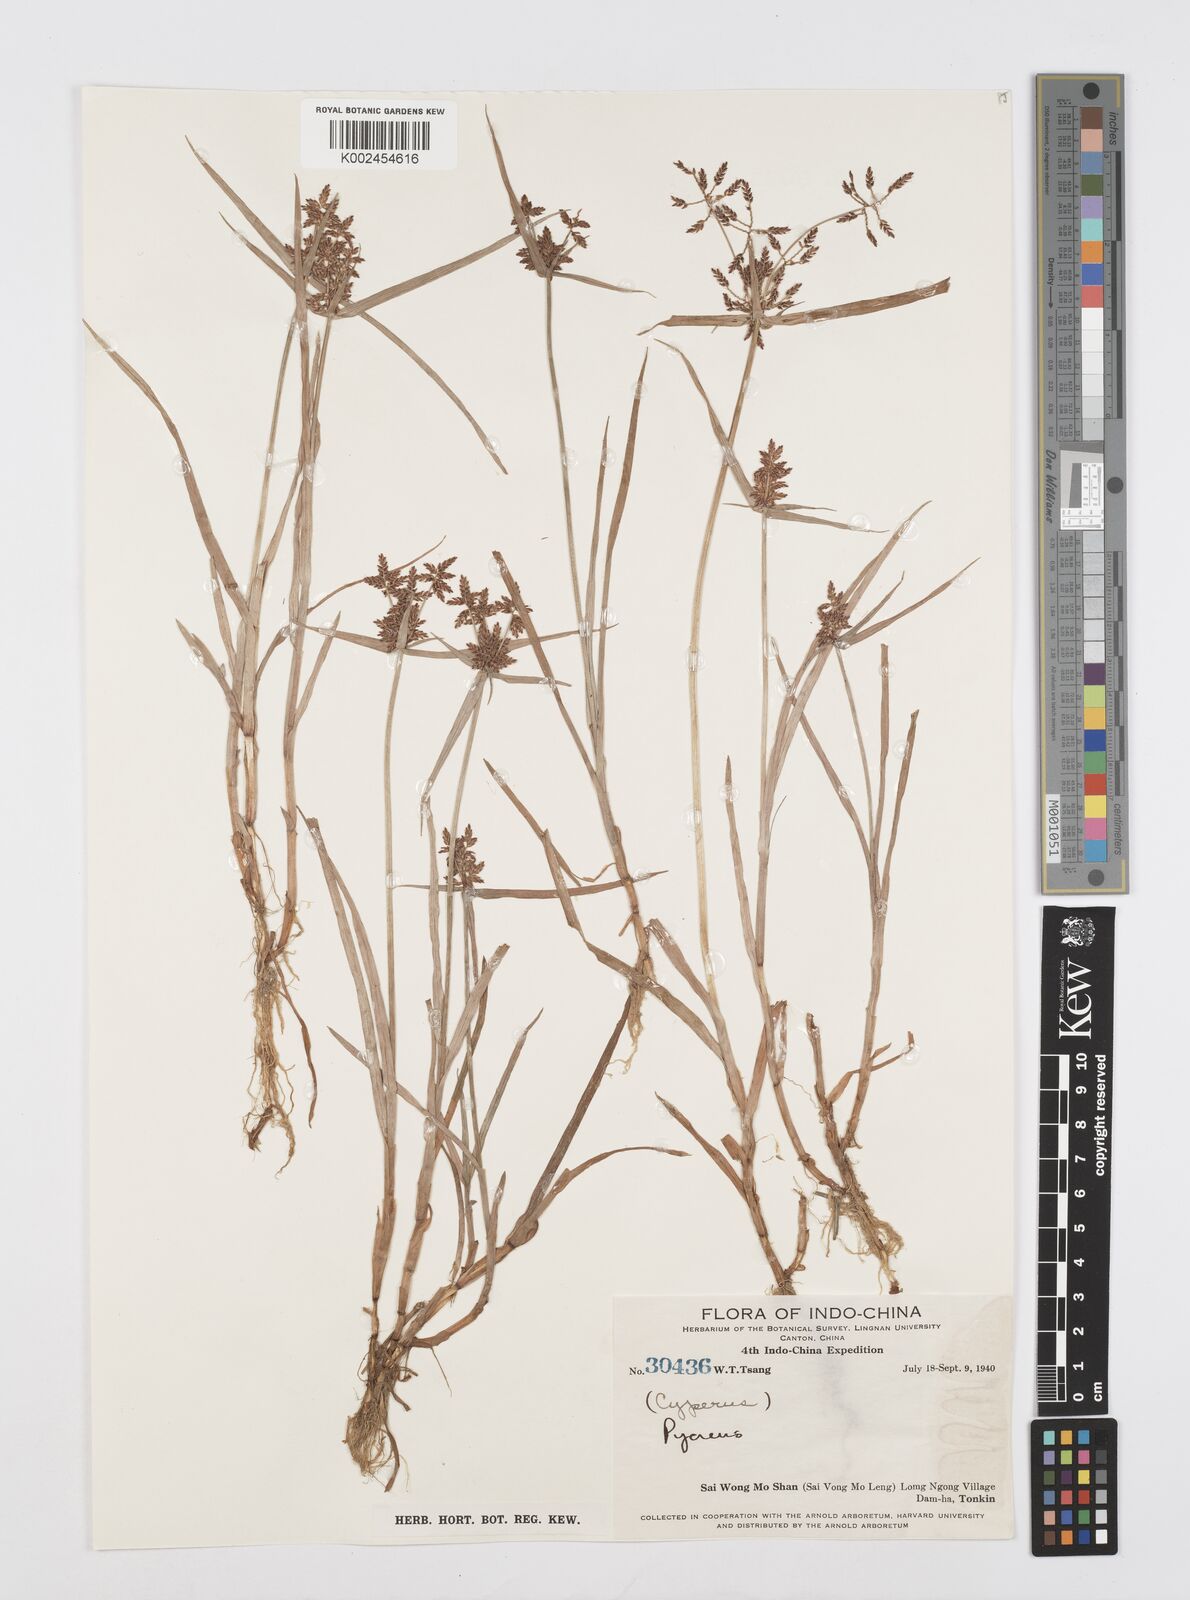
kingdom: Plantae
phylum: Tracheophyta
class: Liliopsida
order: Poales
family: Cyperaceae
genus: Cyperus
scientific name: Cyperus sanguinolentus
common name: Purpleglume flatsedge
